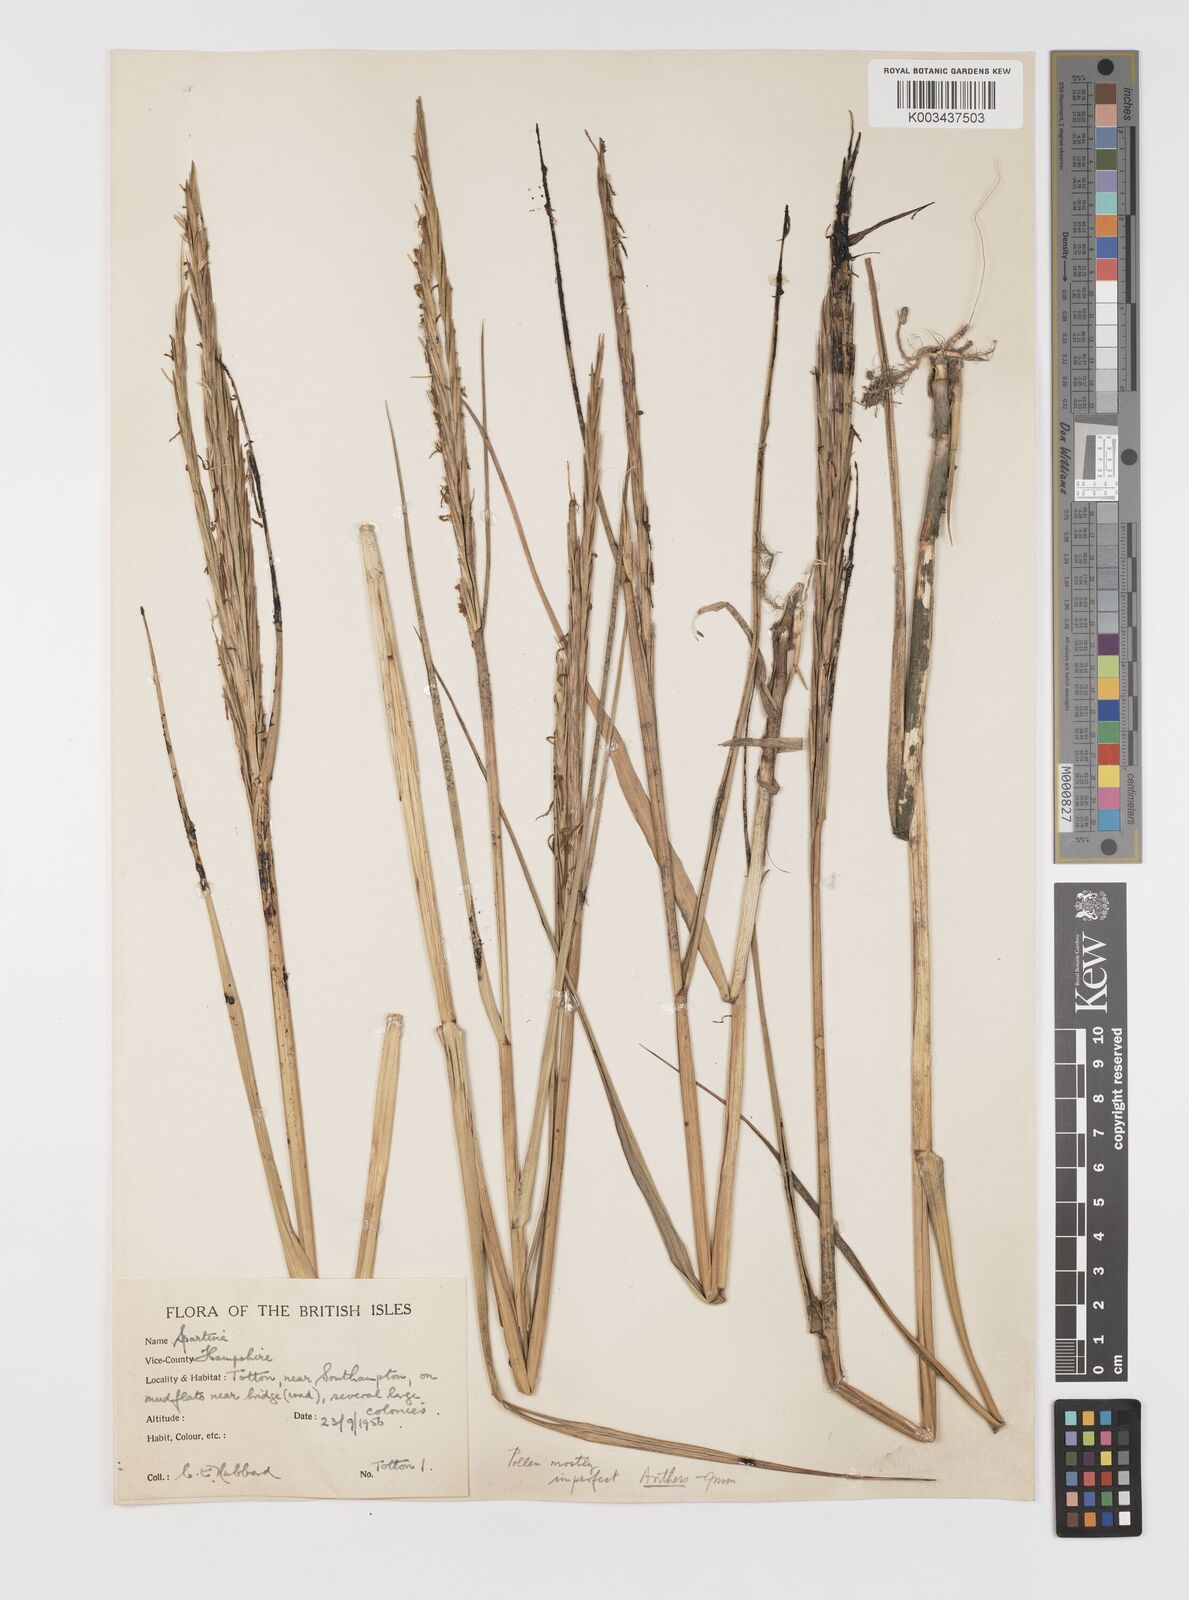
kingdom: Plantae
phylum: Tracheophyta
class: Liliopsida
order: Poales
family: Poaceae
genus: Sporobolus
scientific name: Sporobolus anglicus
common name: English cordgrass
